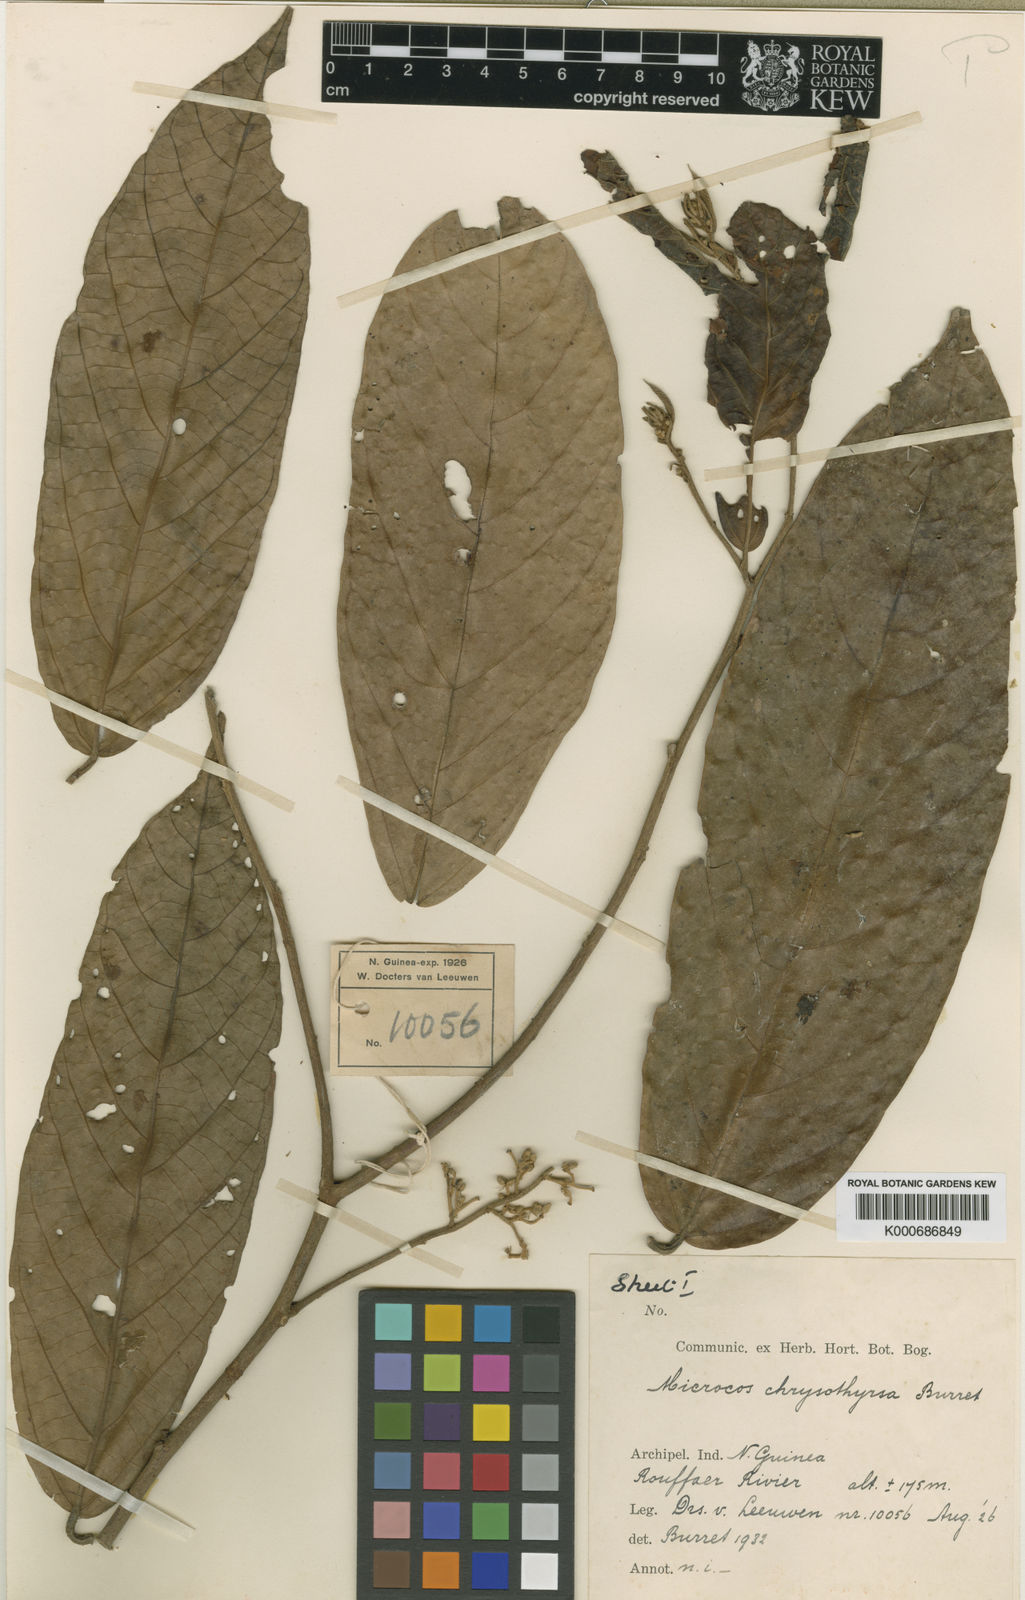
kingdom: Plantae
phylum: Tracheophyta
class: Magnoliopsida
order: Malvales
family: Malvaceae
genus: Microcos
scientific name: Microcos chrysothyrsa
